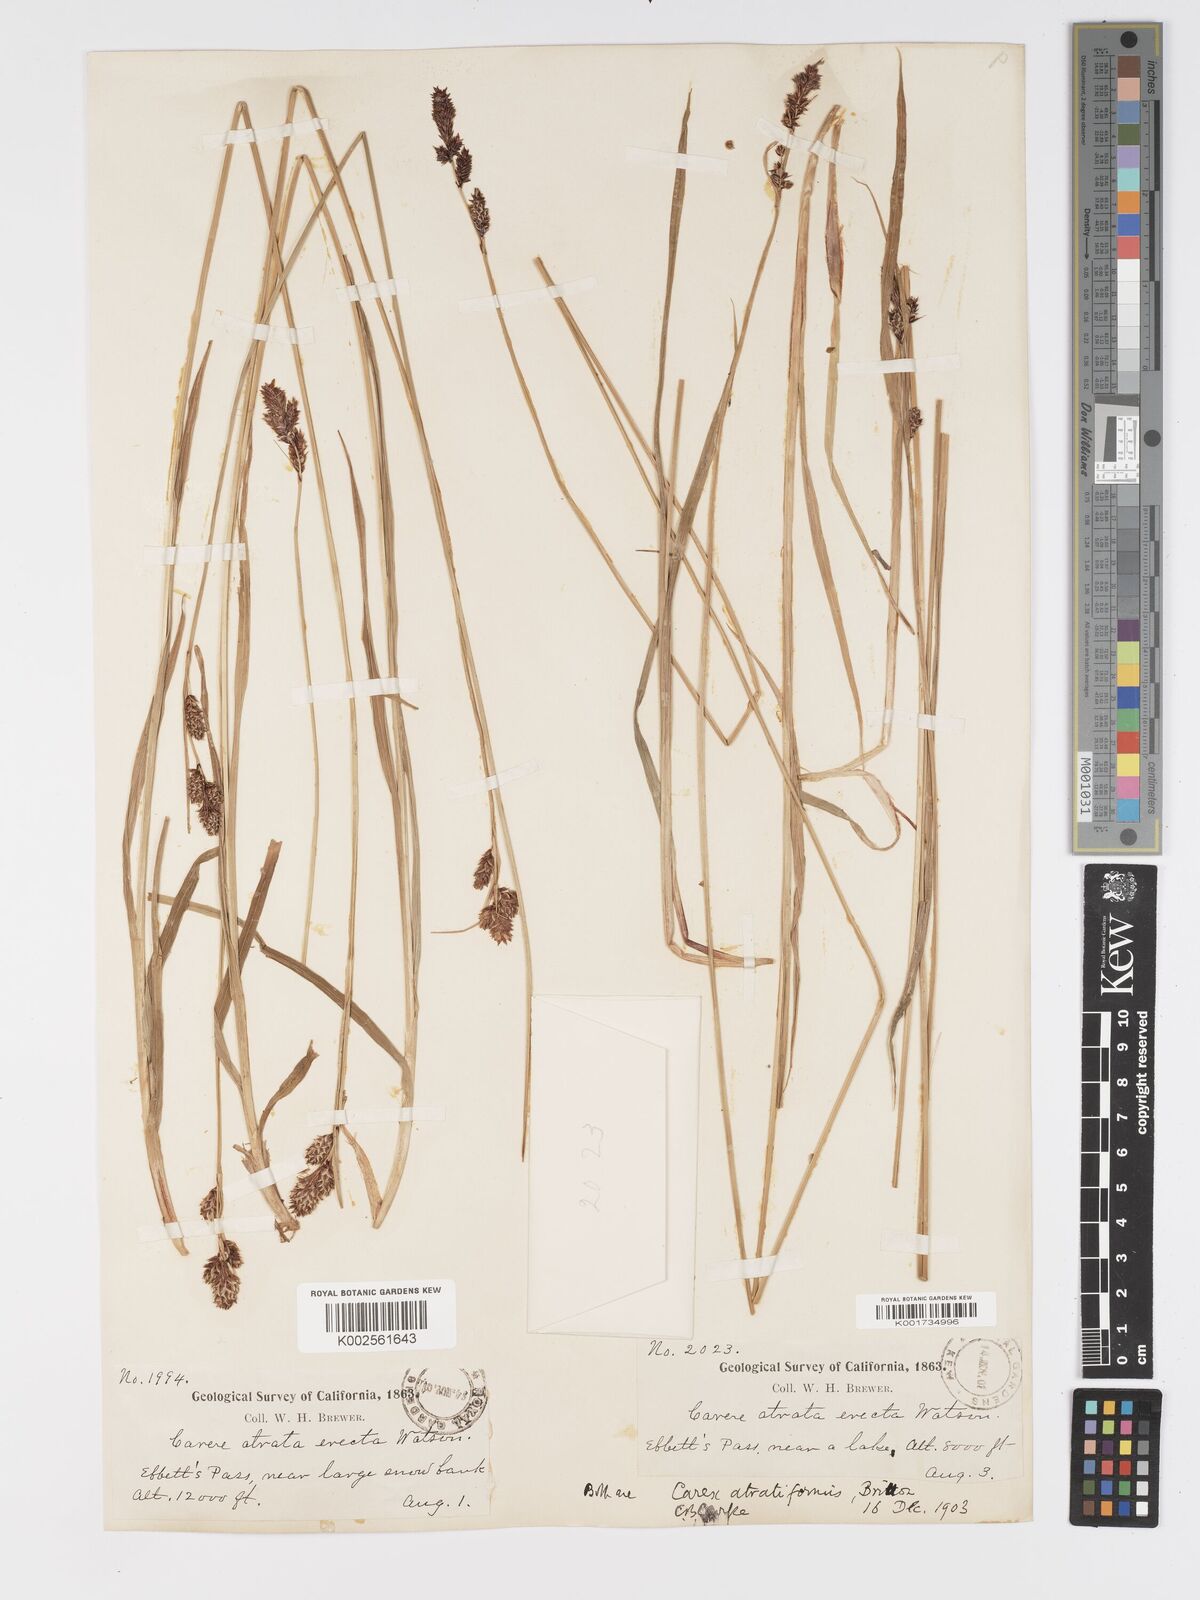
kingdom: Plantae
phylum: Tracheophyta
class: Liliopsida
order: Poales
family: Cyperaceae
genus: Carex
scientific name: Carex heteroneura
